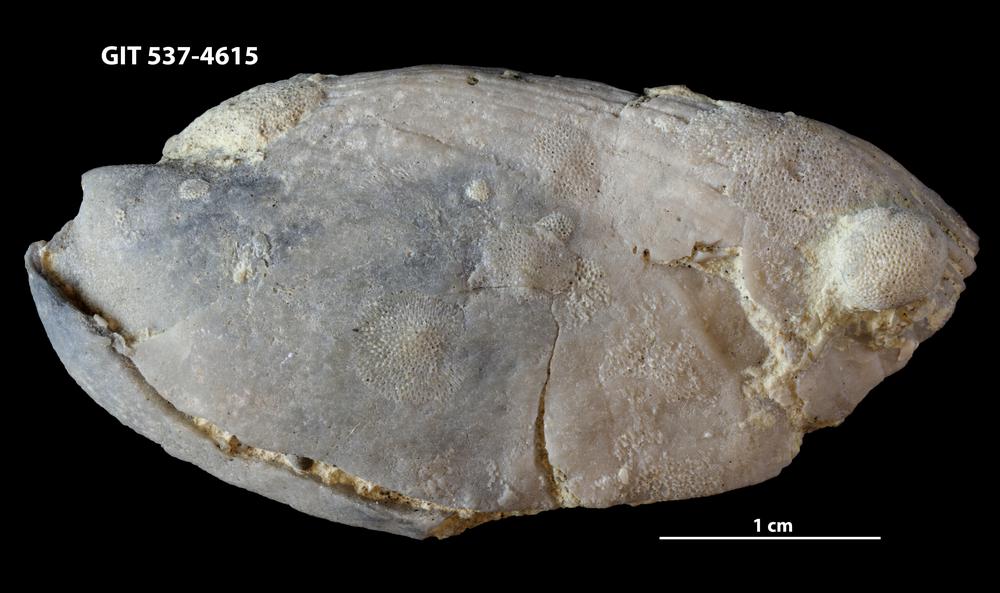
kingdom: Animalia
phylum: Bryozoa
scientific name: Bryozoa
